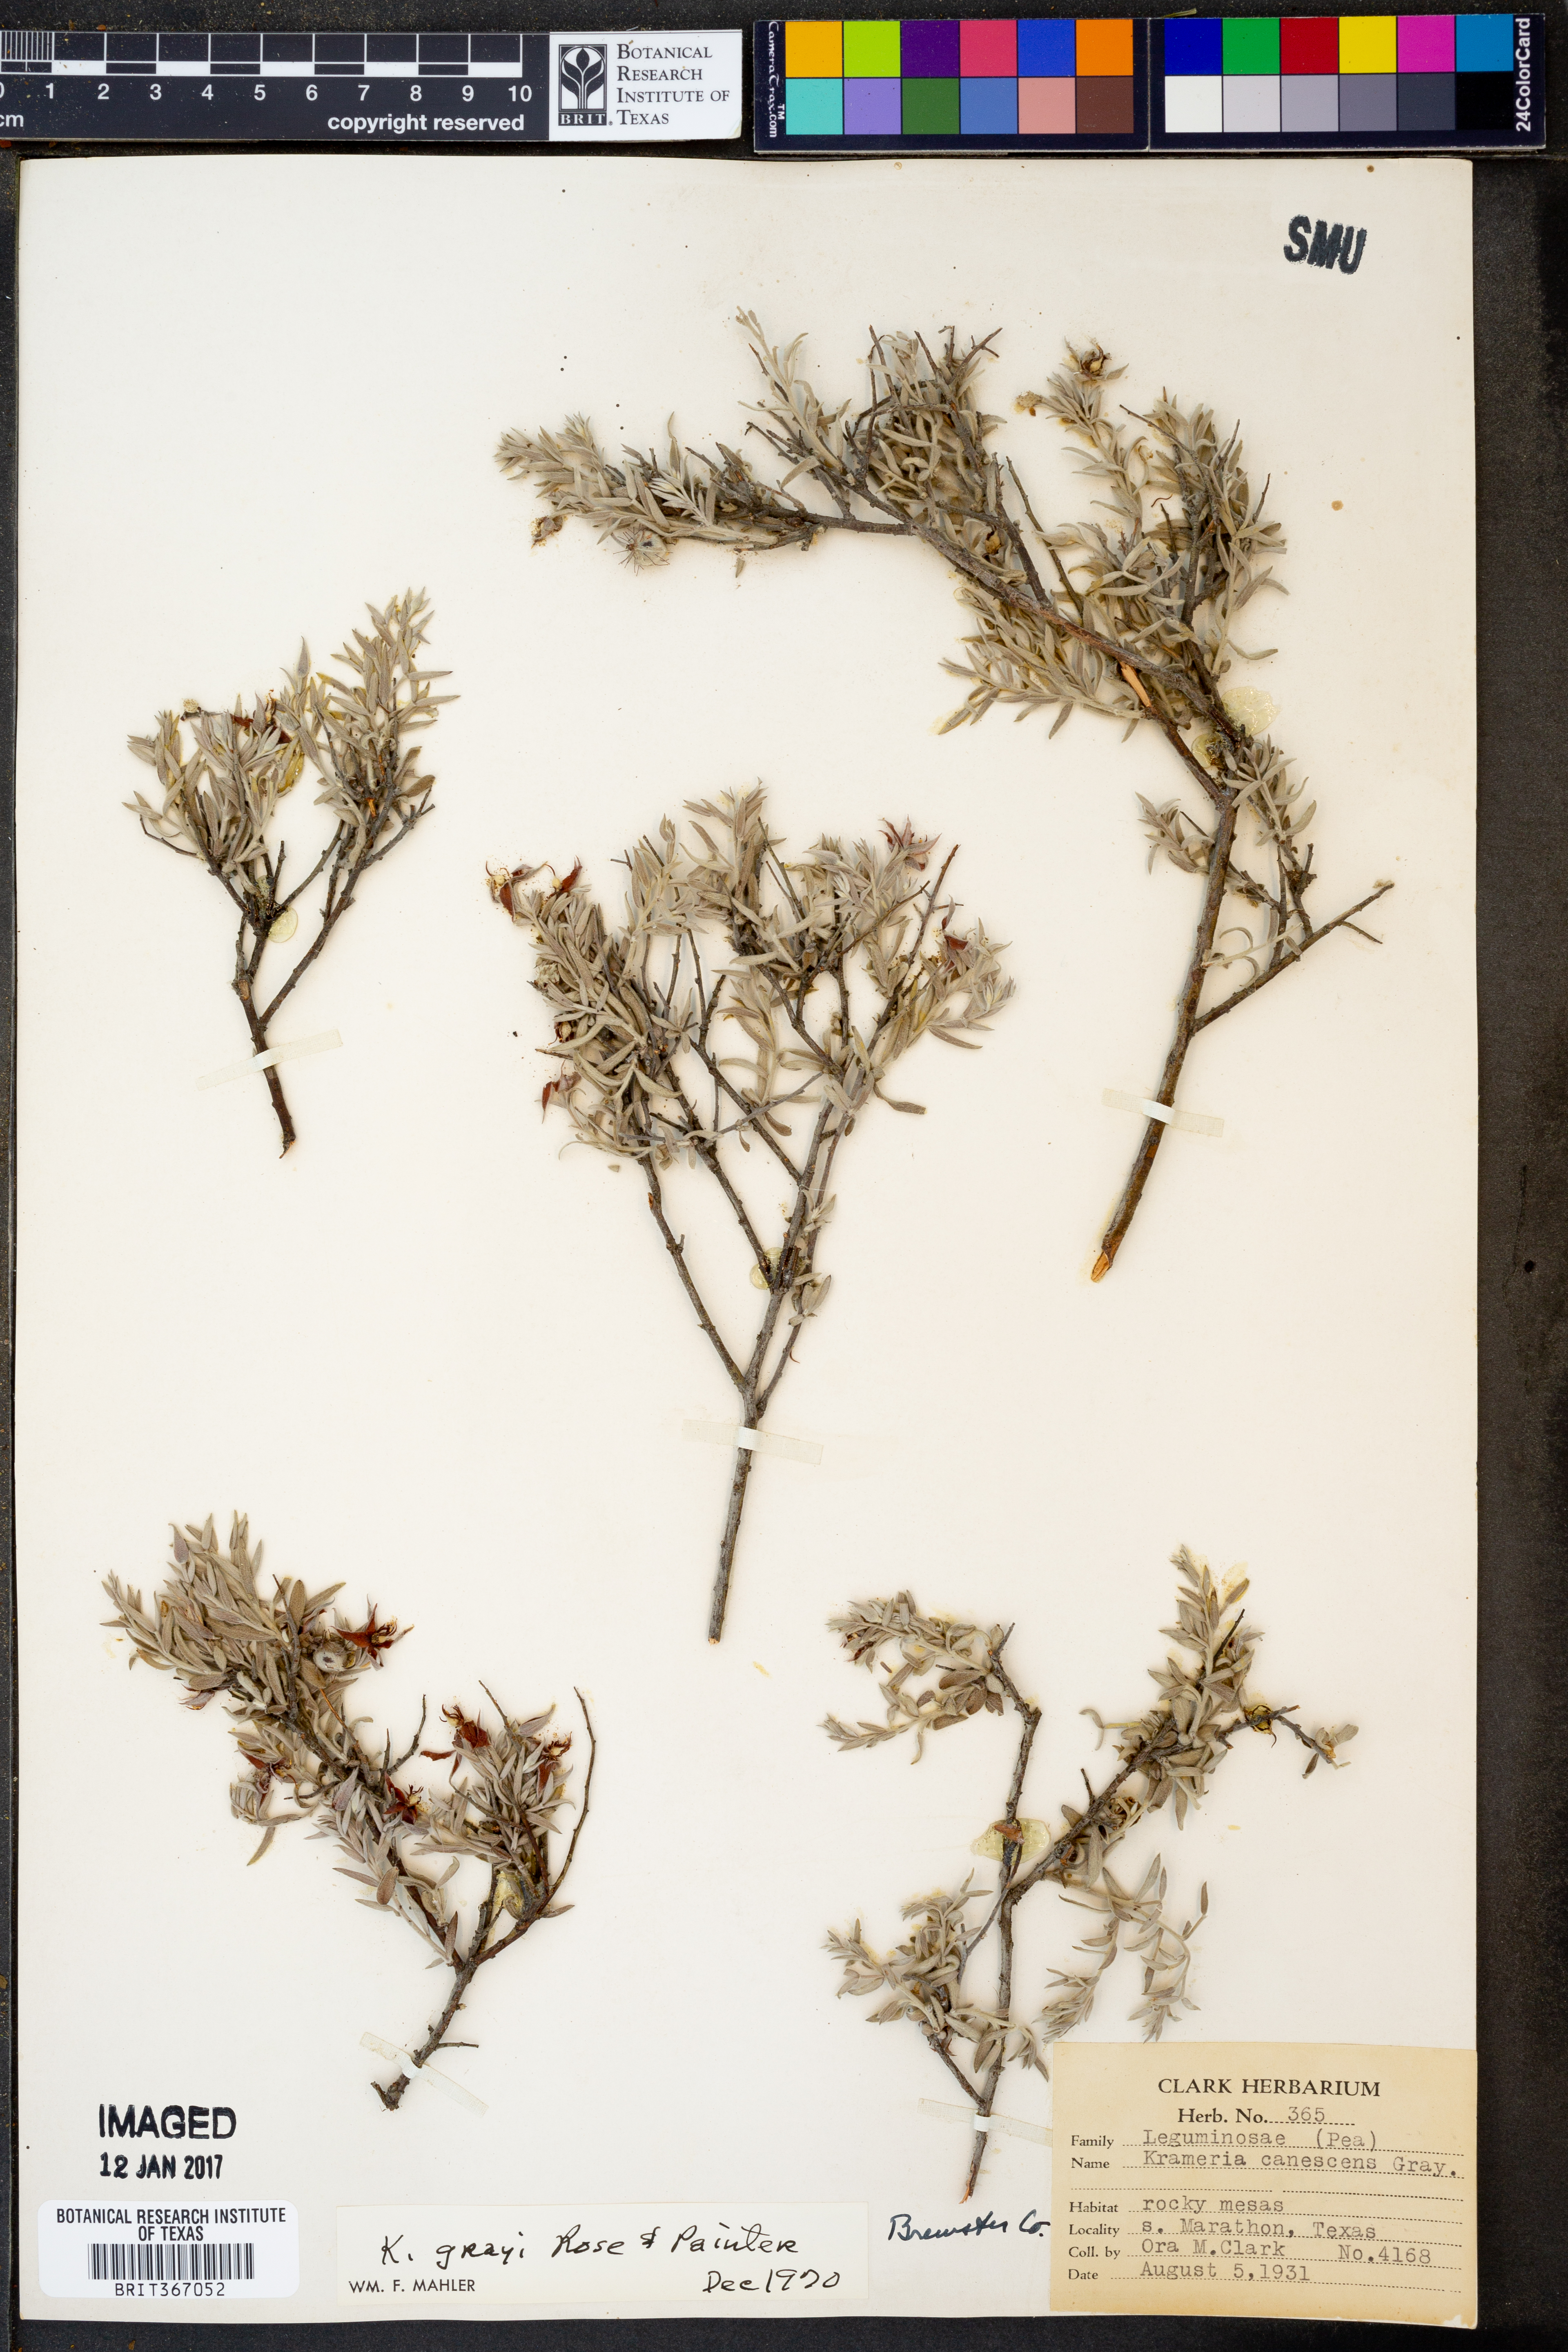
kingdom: Plantae
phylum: Tracheophyta
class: Magnoliopsida
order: Zygophyllales
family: Krameriaceae
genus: Krameria
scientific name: Krameria bicolor
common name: White ratany
